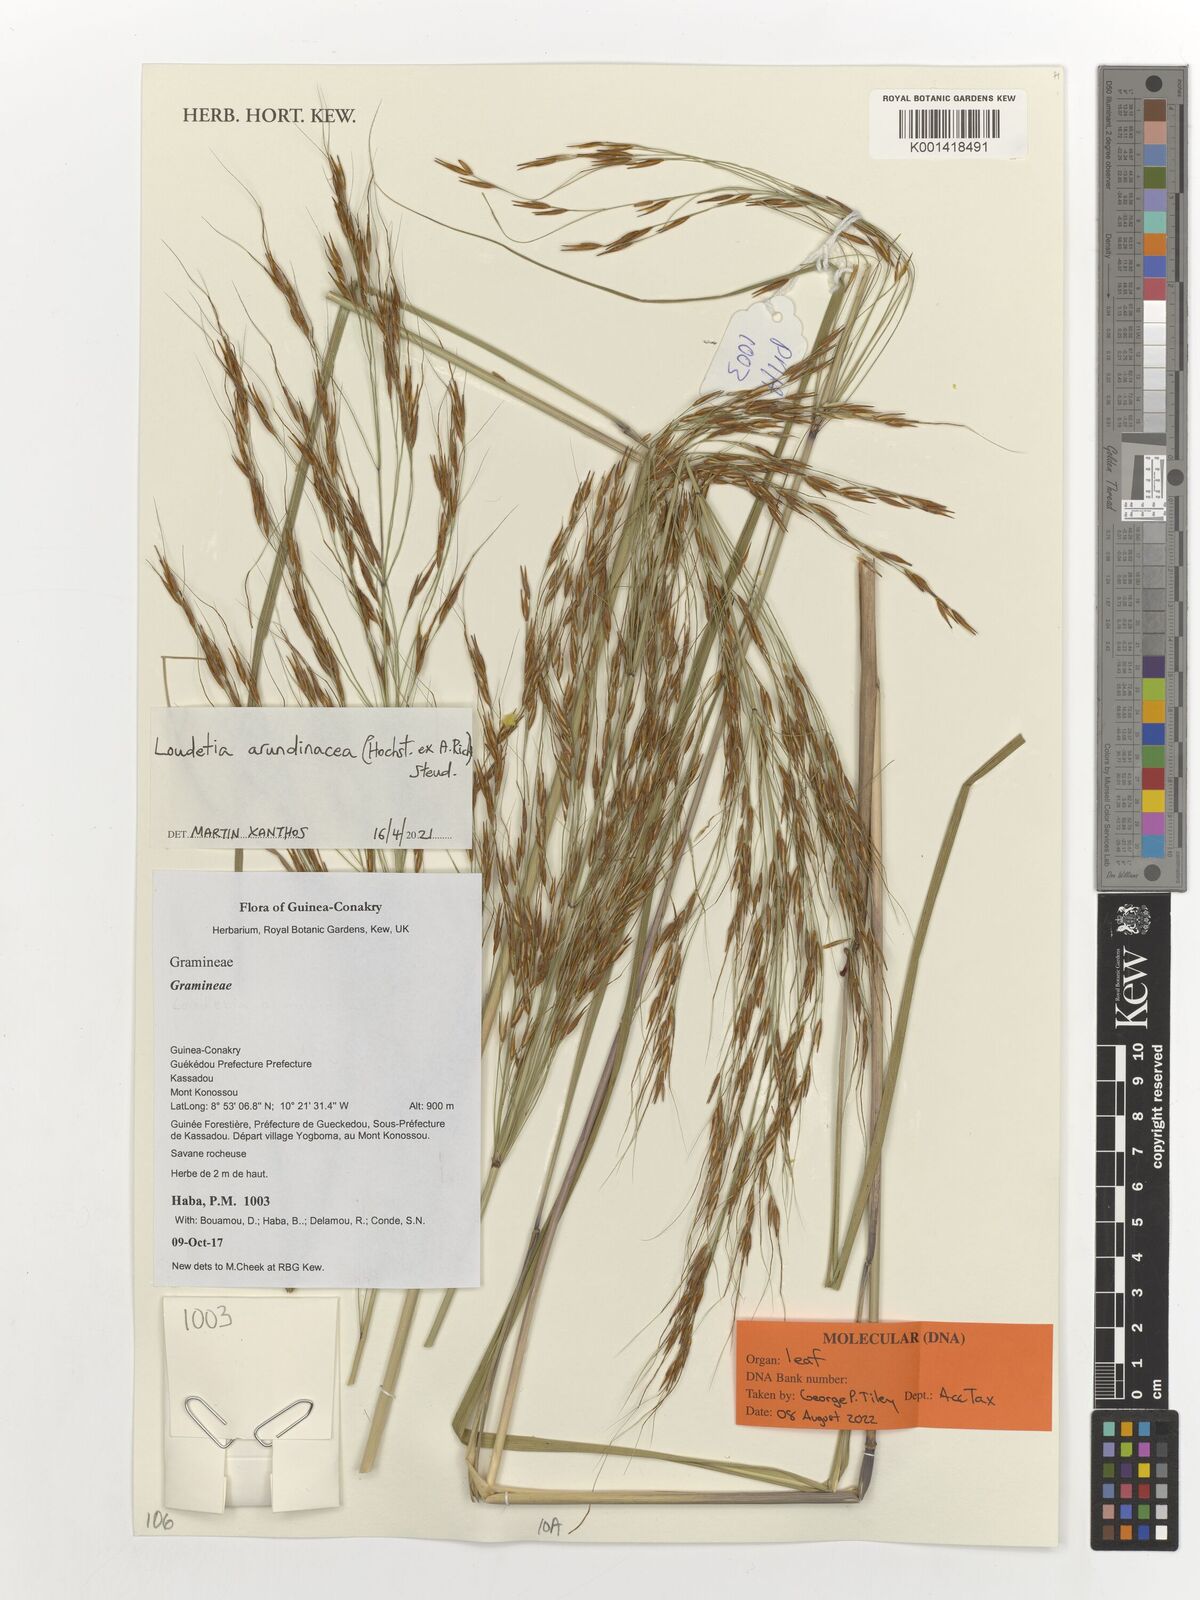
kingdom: Plantae
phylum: Tracheophyta
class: Liliopsida
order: Poales
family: Poaceae
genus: Loudetia
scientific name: Loudetia arundinacea
